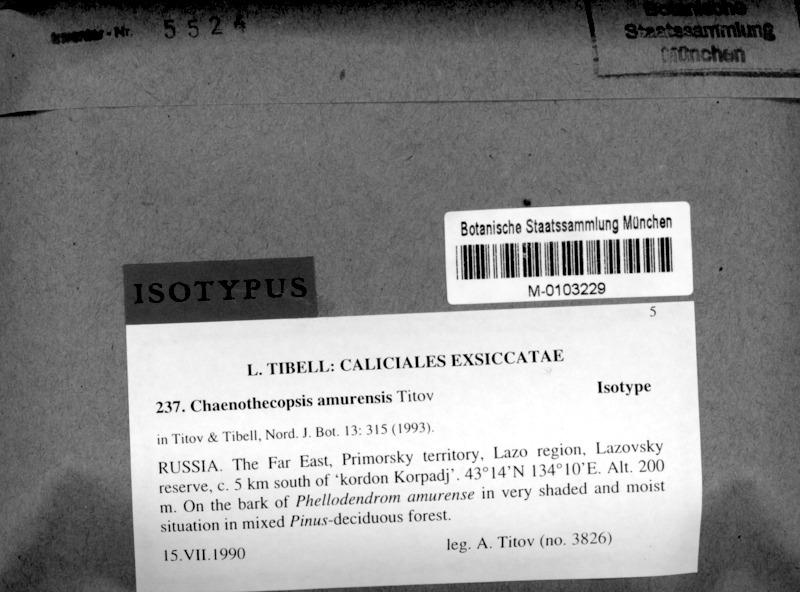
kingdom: Fungi
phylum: Ascomycota
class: Eurotiomycetes
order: Mycocaliciales
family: Mycocaliciaceae
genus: Chaenothecopsis
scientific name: Chaenothecopsis amurensis
